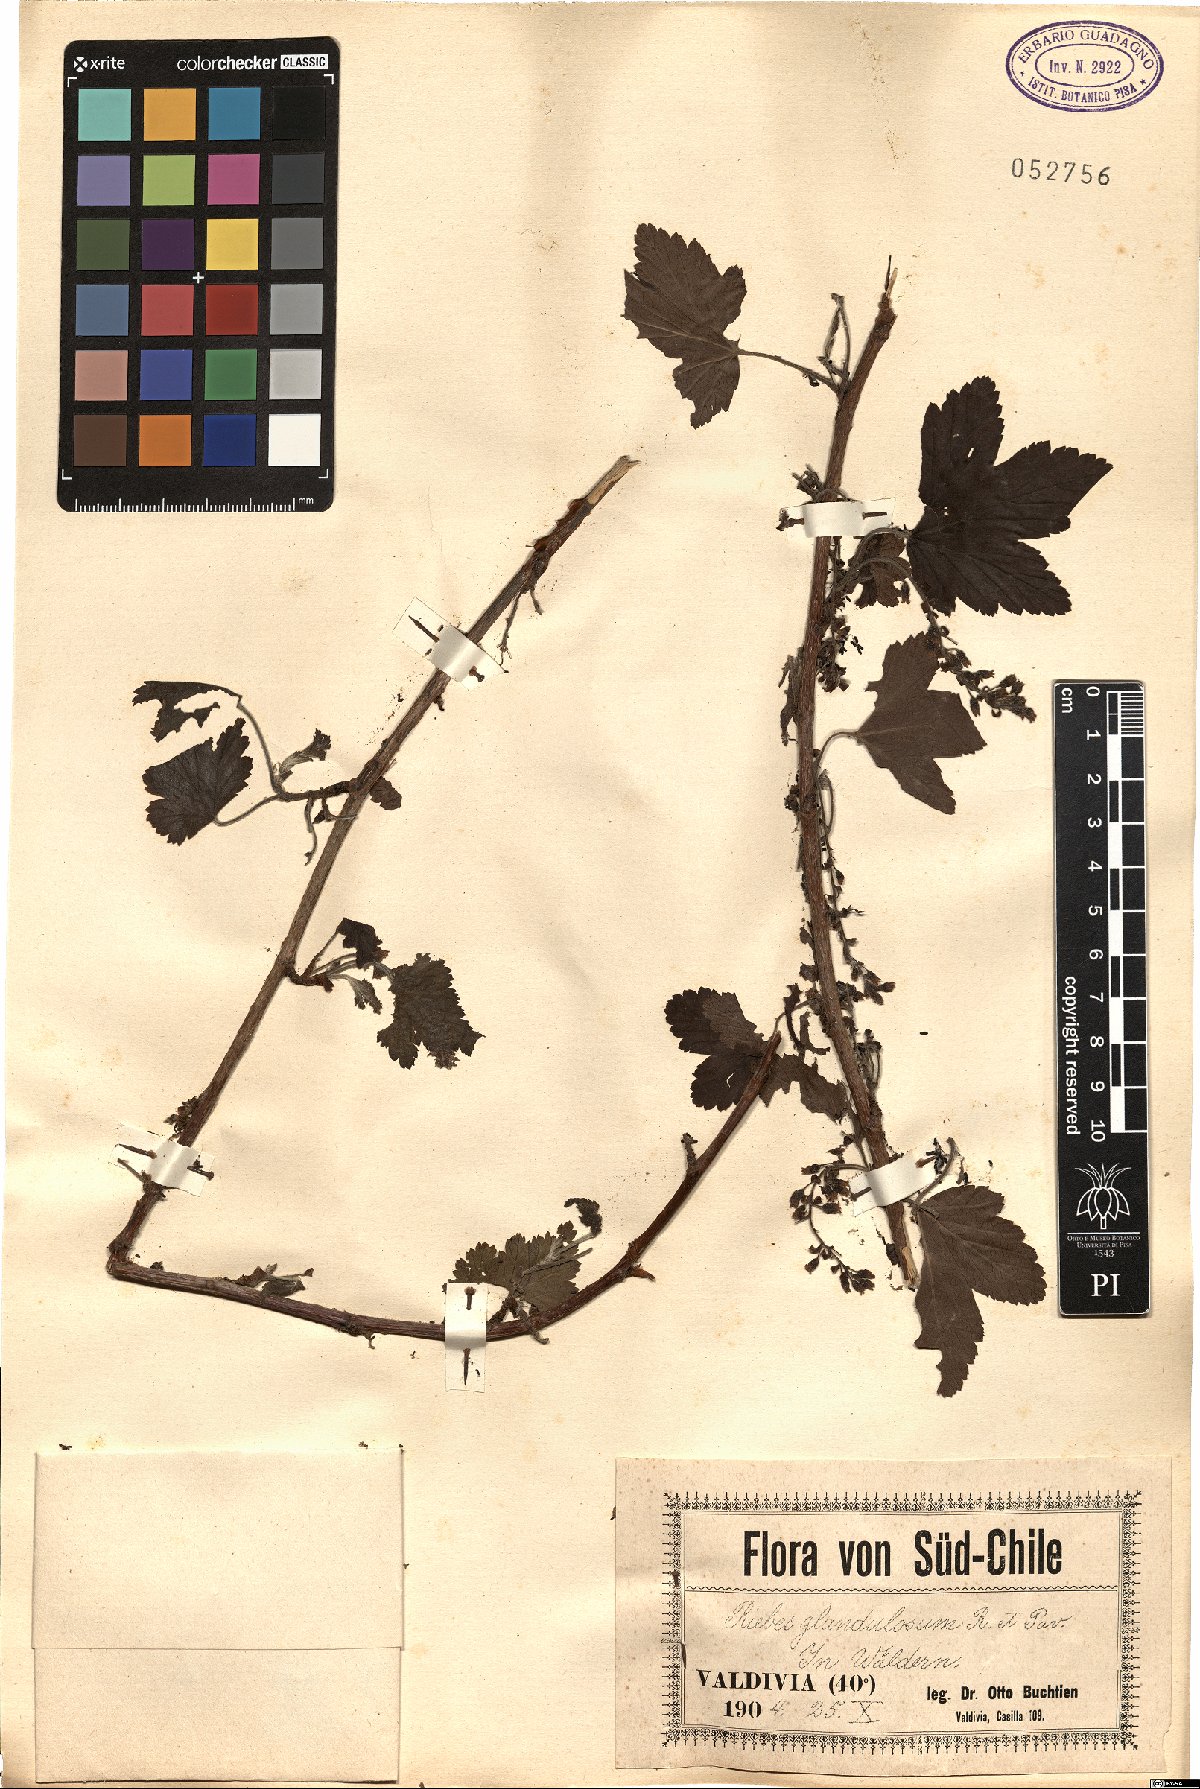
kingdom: Plantae
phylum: Tracheophyta
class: Magnoliopsida
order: Saxifragales
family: Grossulariaceae
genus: Ribes
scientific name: Ribes glandulosum
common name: Skunk currant
